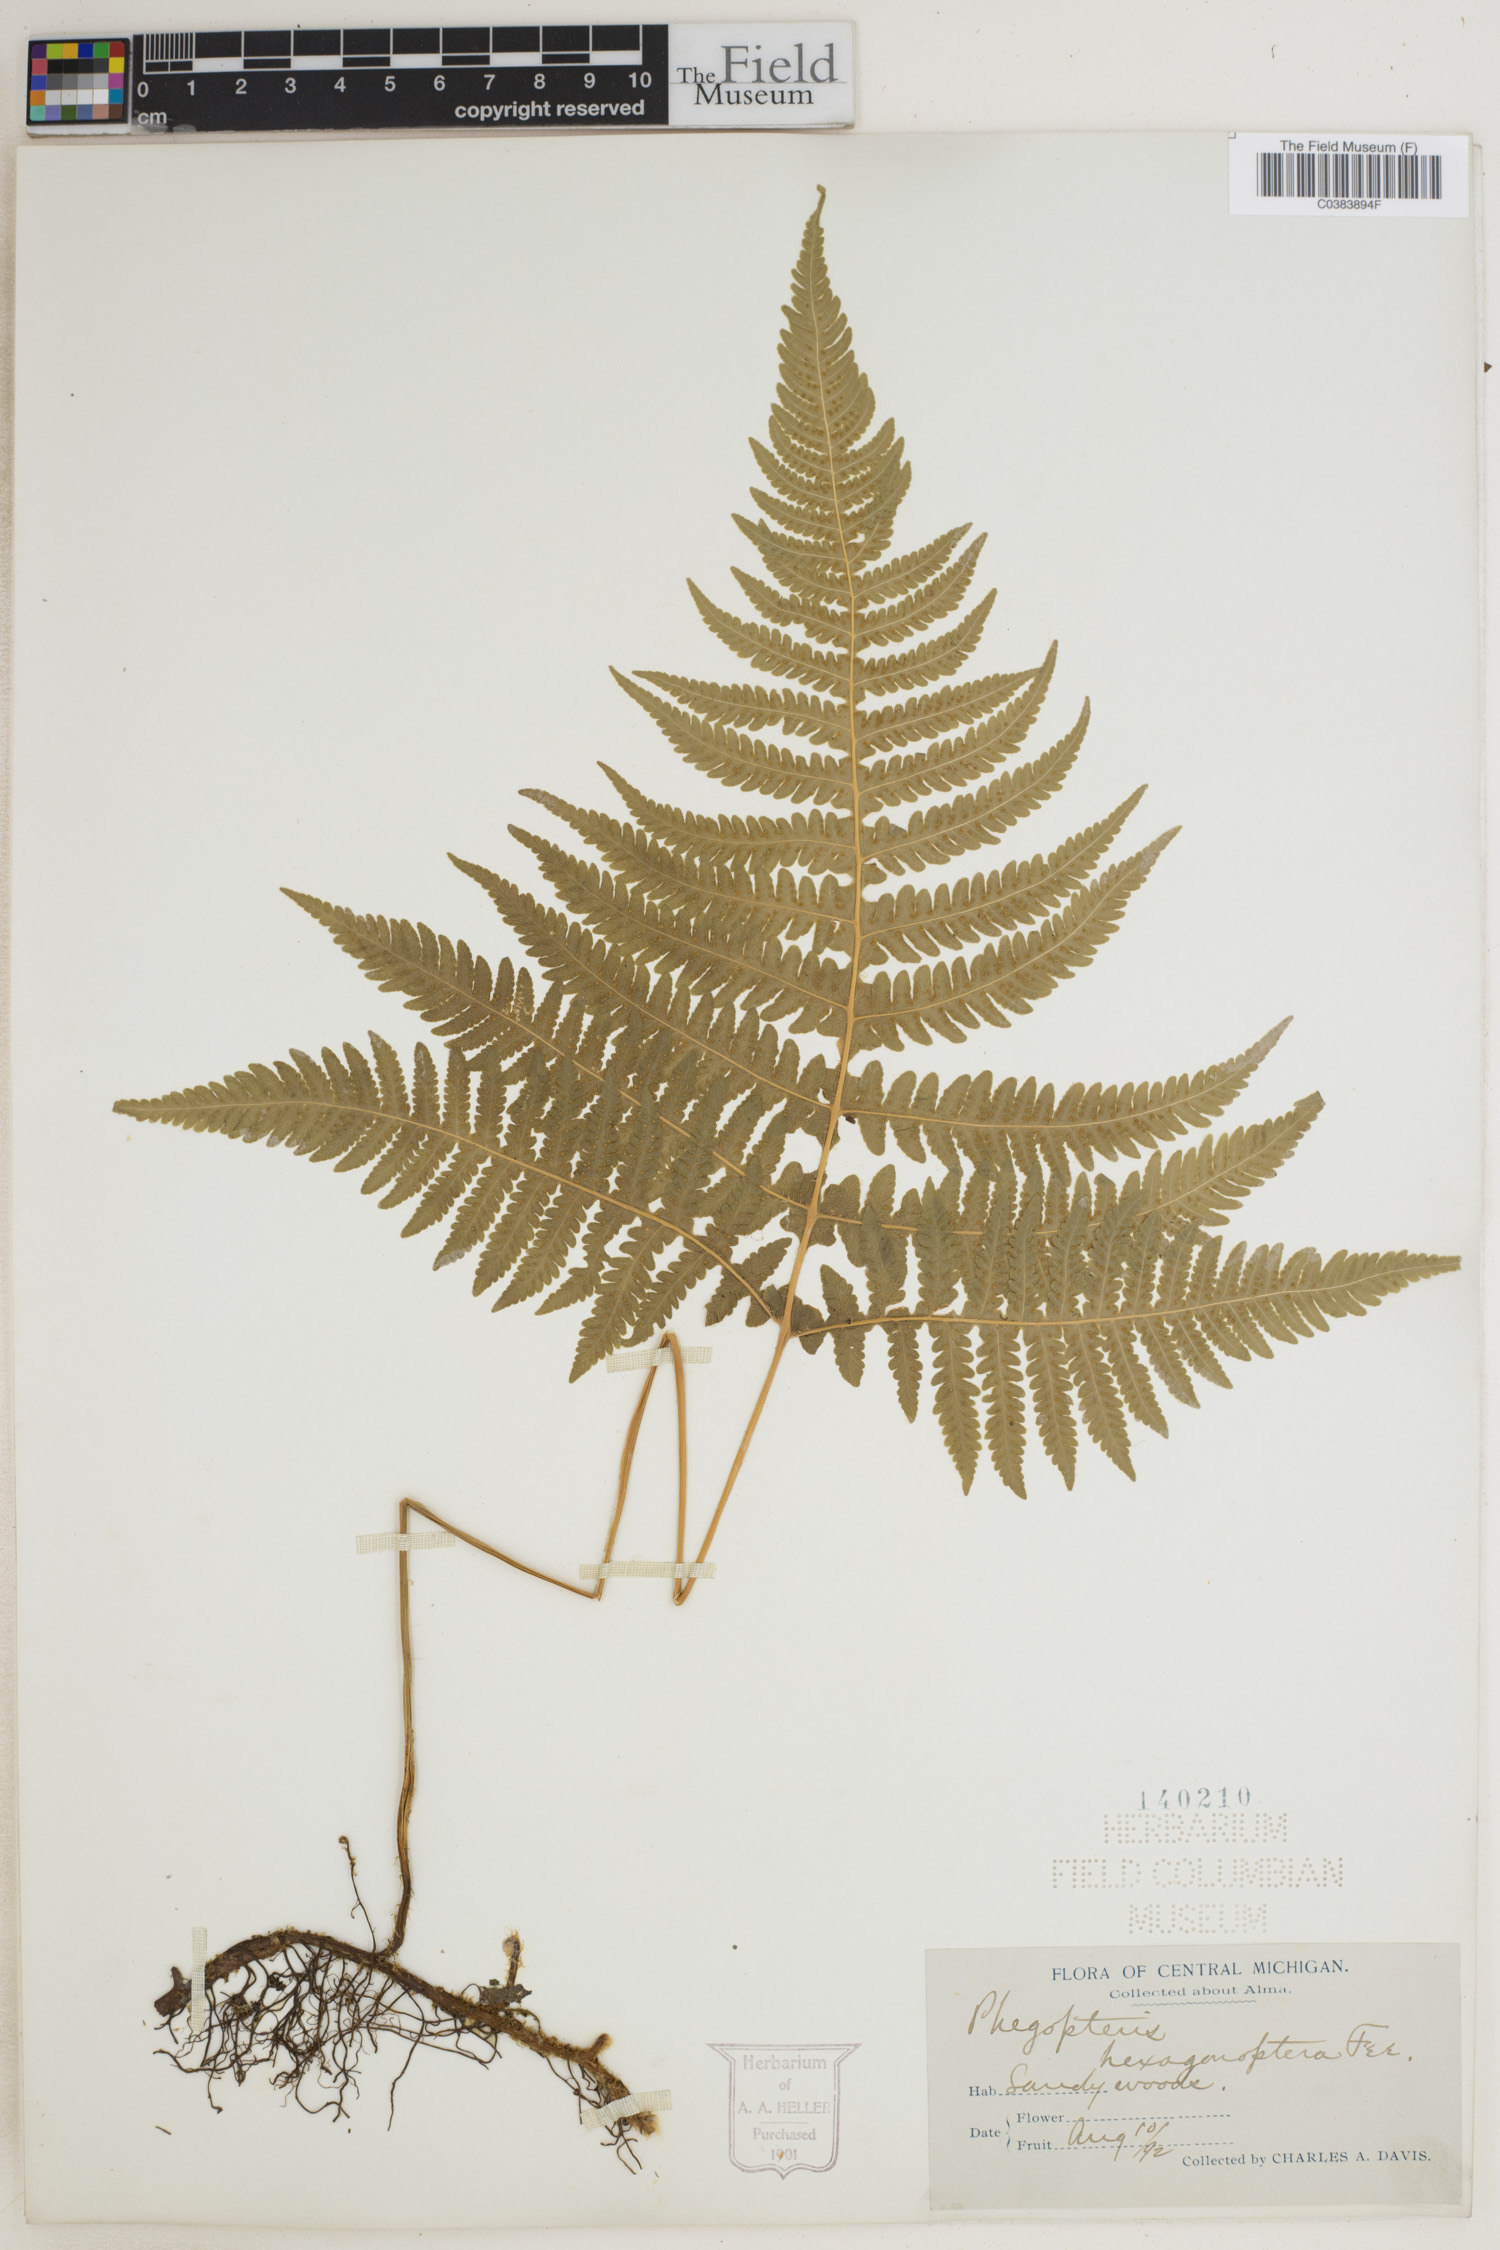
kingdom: Plantae
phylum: Tracheophyta
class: Polypodiopsida
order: Polypodiales
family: Thelypteridaceae
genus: Phegopteris
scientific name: Phegopteris hexagonoptera
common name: Broad beech fern
